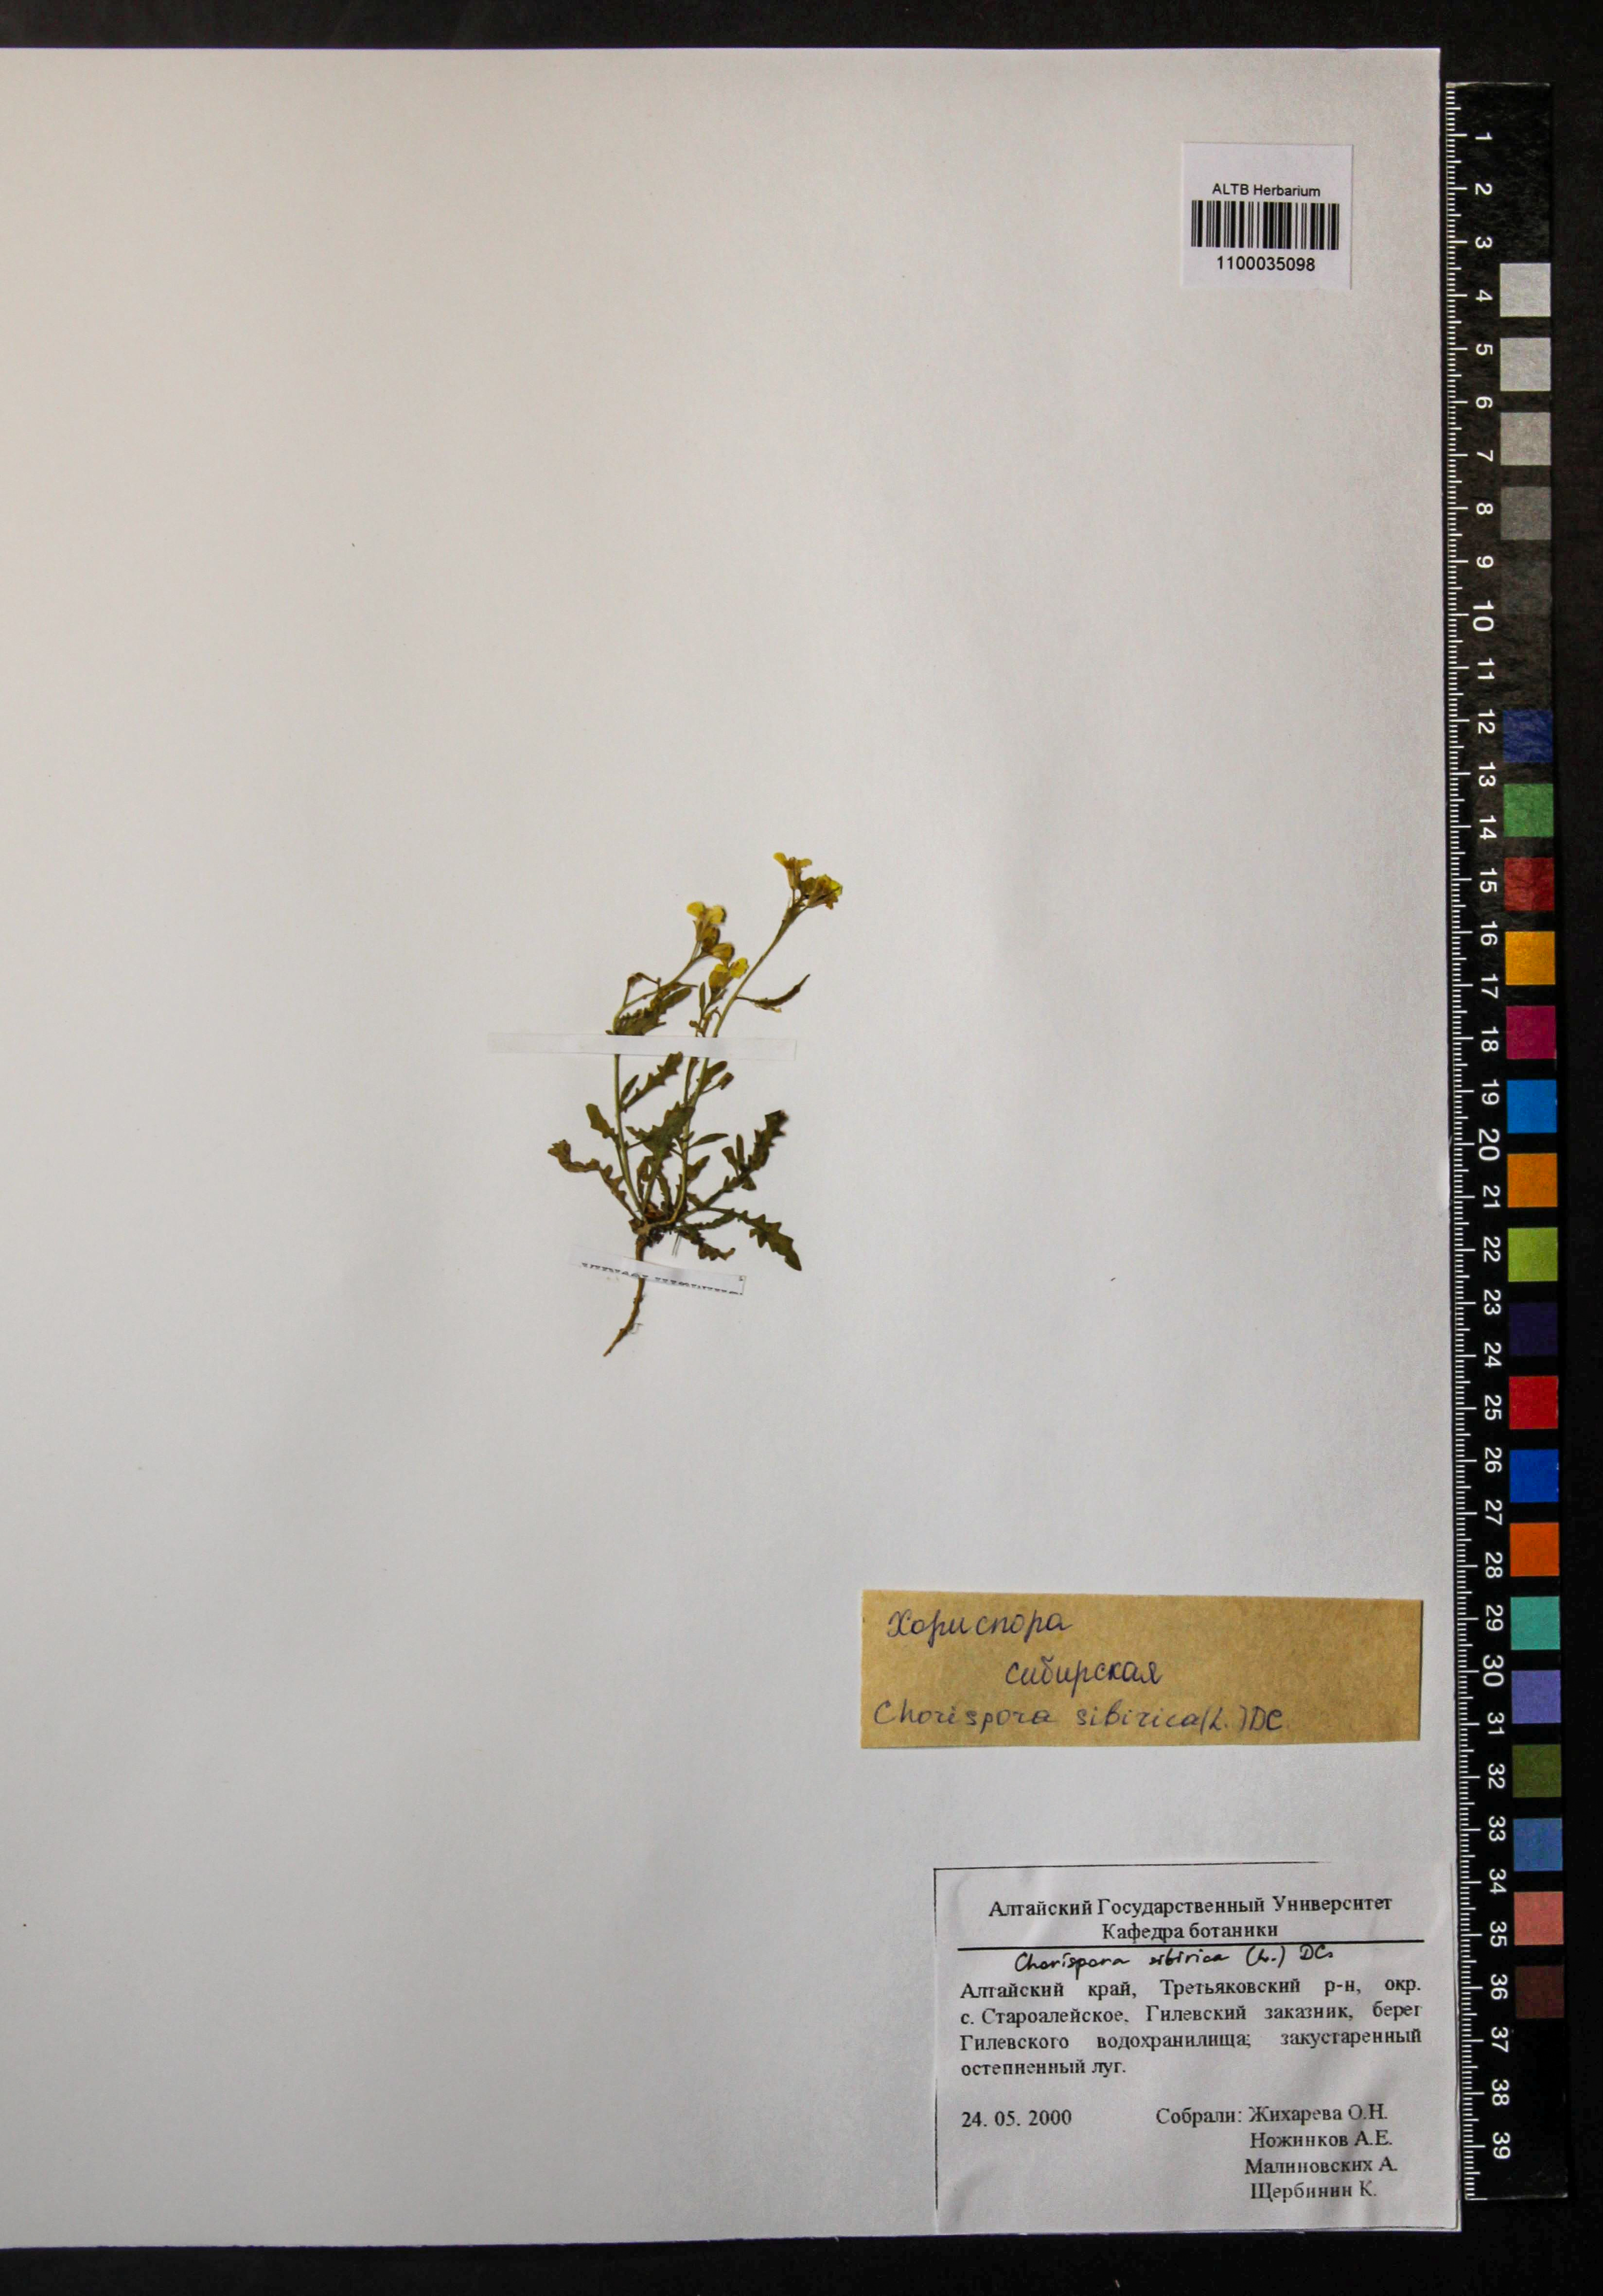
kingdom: Plantae
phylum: Tracheophyta
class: Magnoliopsida
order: Brassicales
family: Brassicaceae
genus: Chorispora
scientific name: Chorispora sibirica
